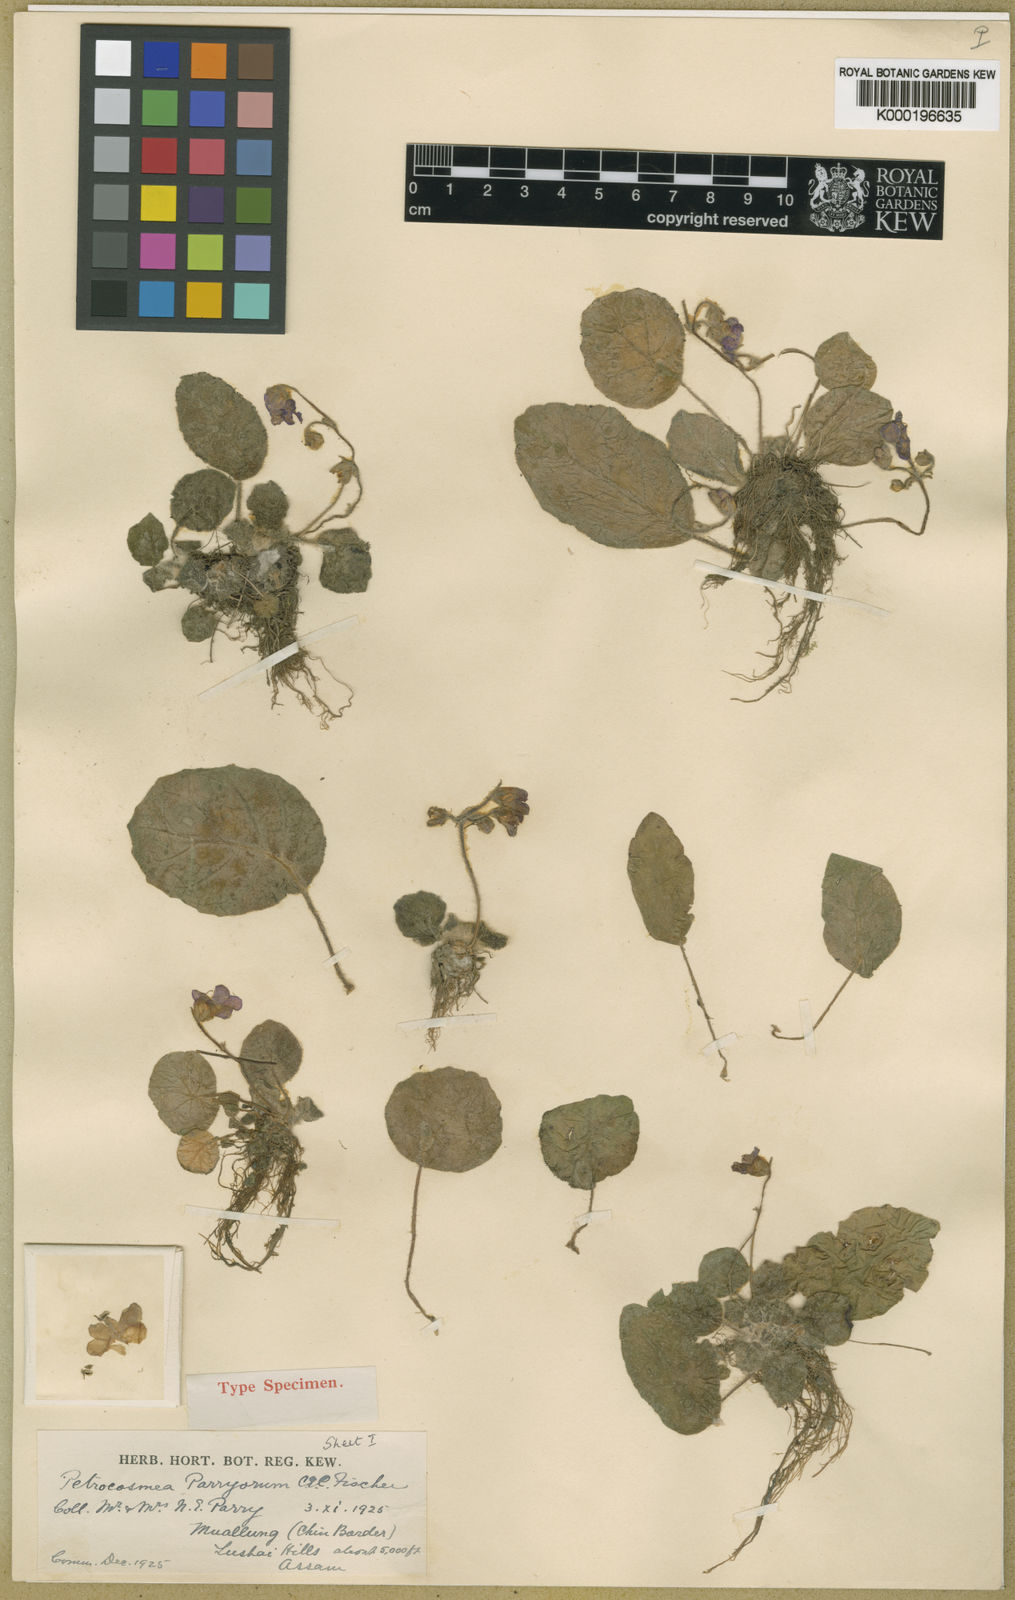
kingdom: Plantae
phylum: Tracheophyta
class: Magnoliopsida
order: Lamiales
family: Gesneriaceae
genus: Petrocosmea
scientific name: Petrocosmea parryorum
